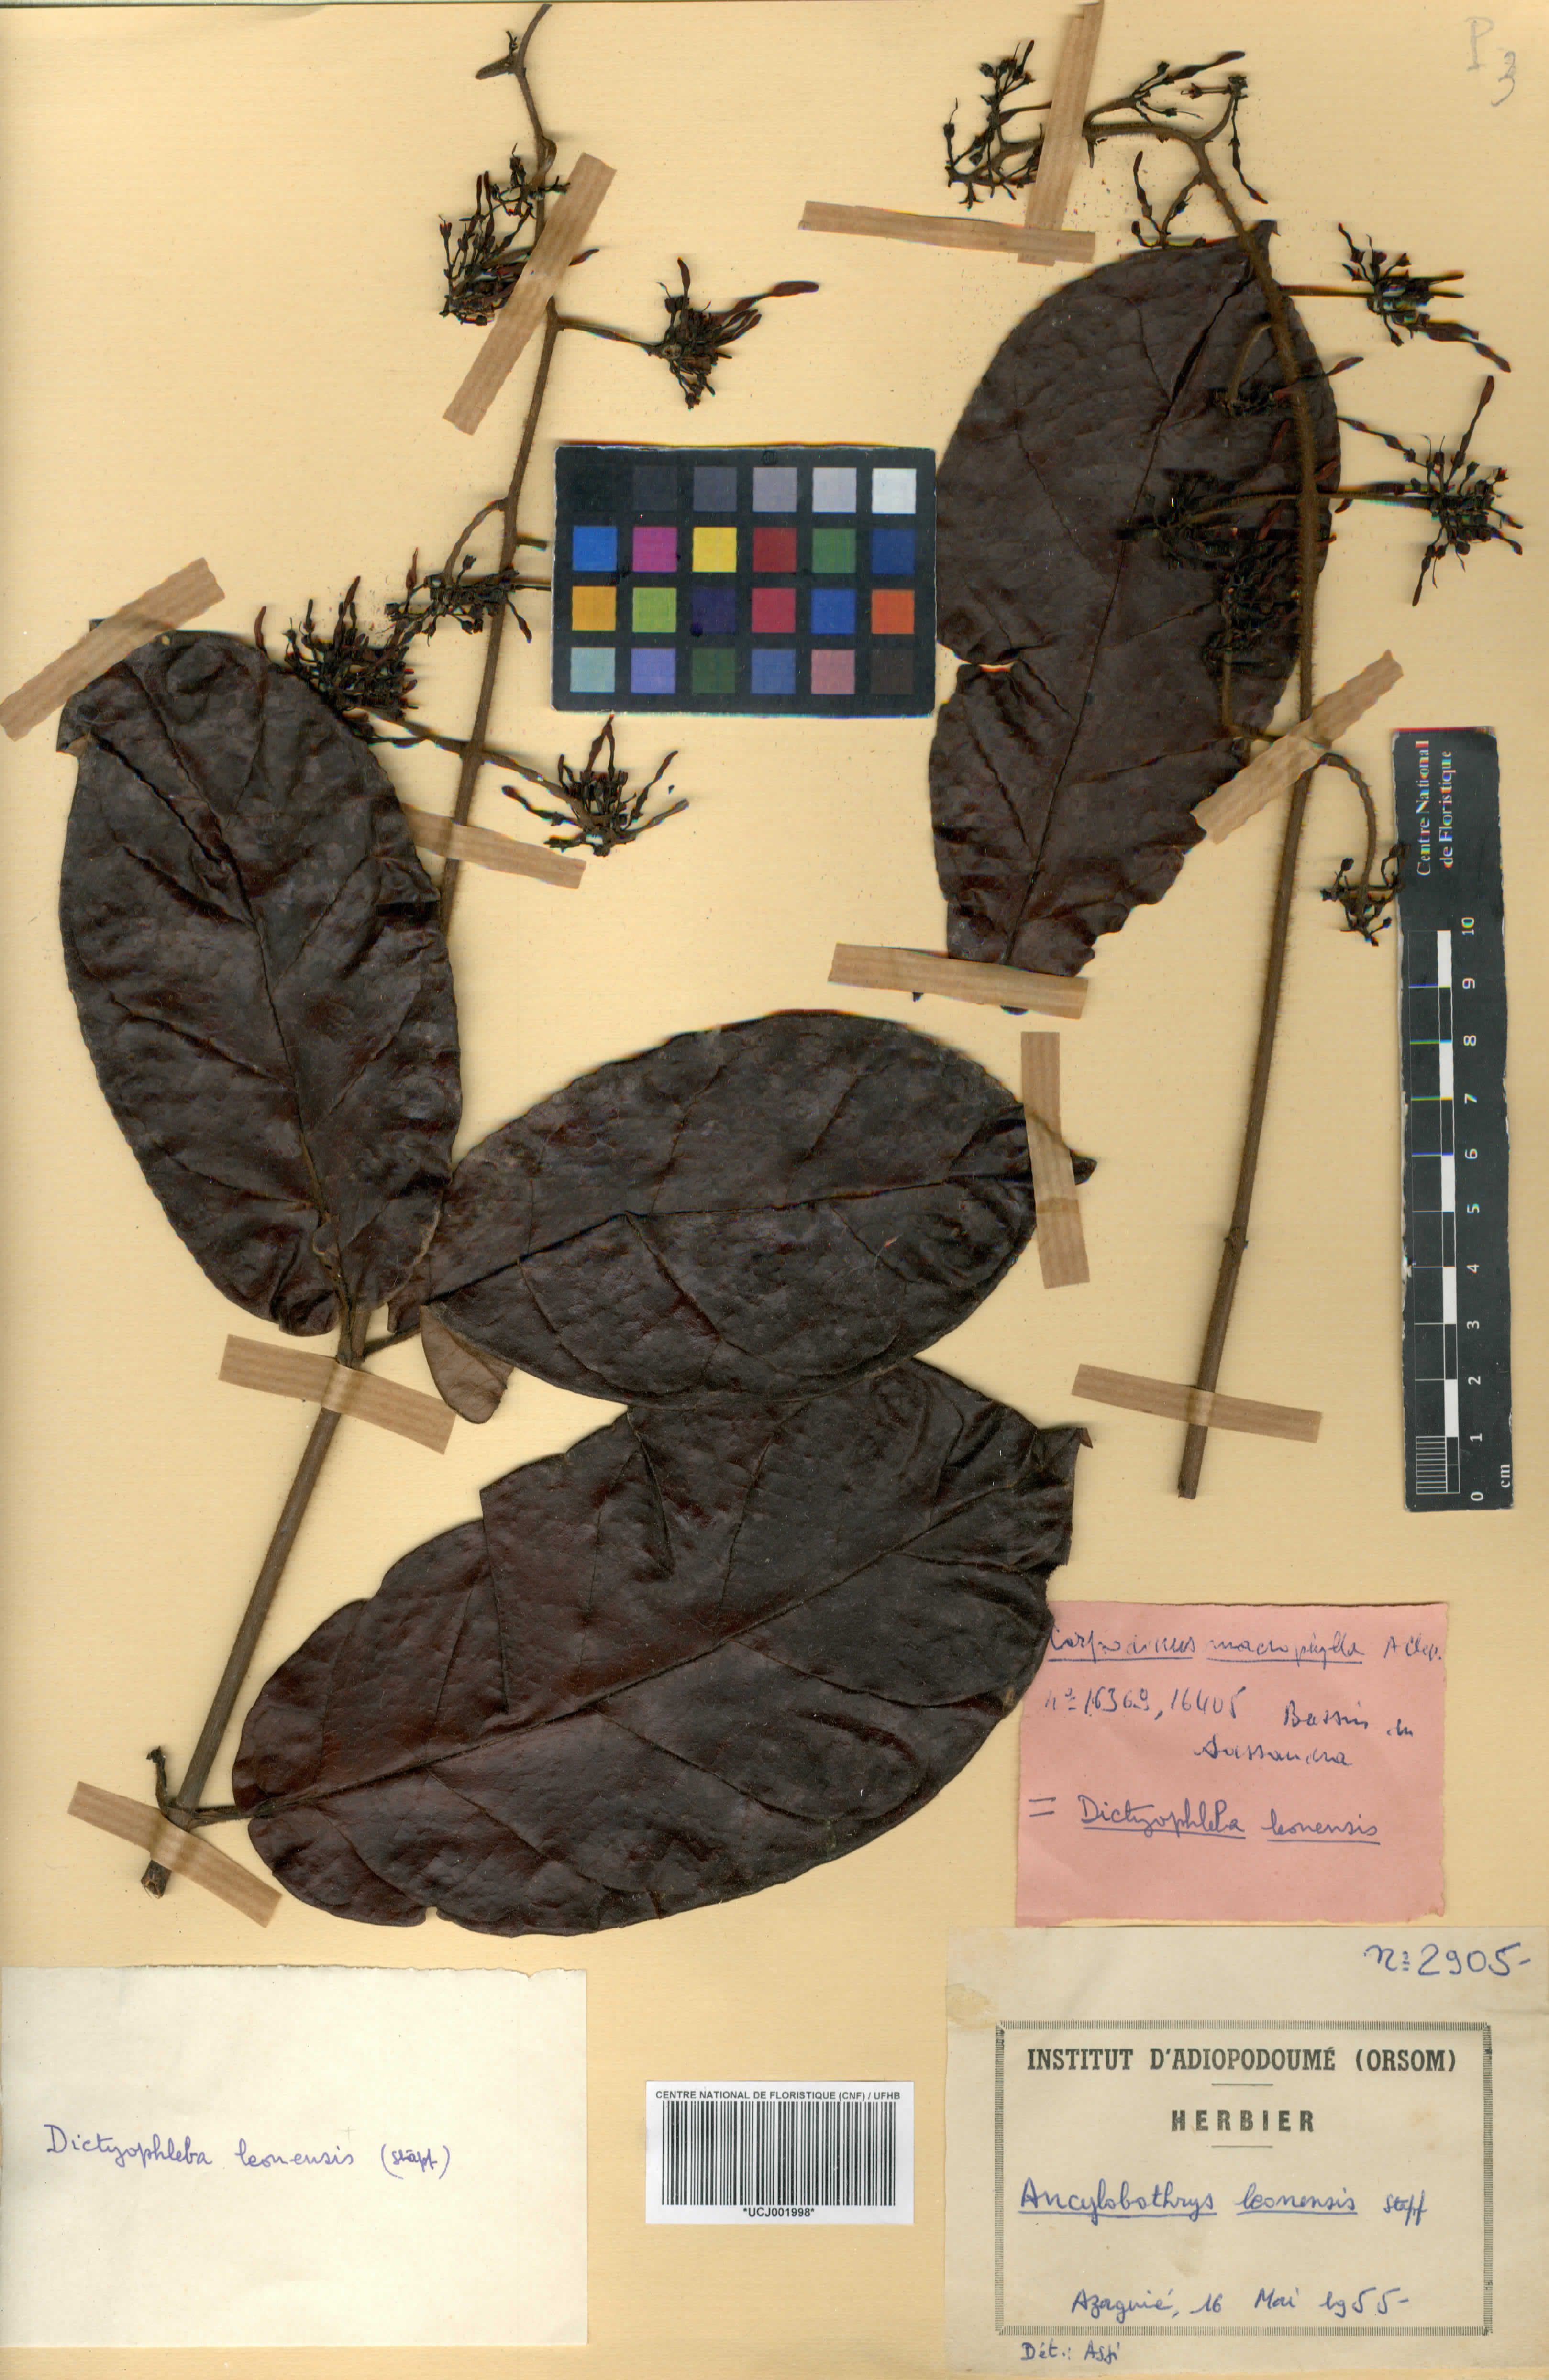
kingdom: Plantae
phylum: Tracheophyta
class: Magnoliopsida
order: Gentianales
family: Apocynaceae
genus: Dictyophleba
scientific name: Dictyophleba leonensis
